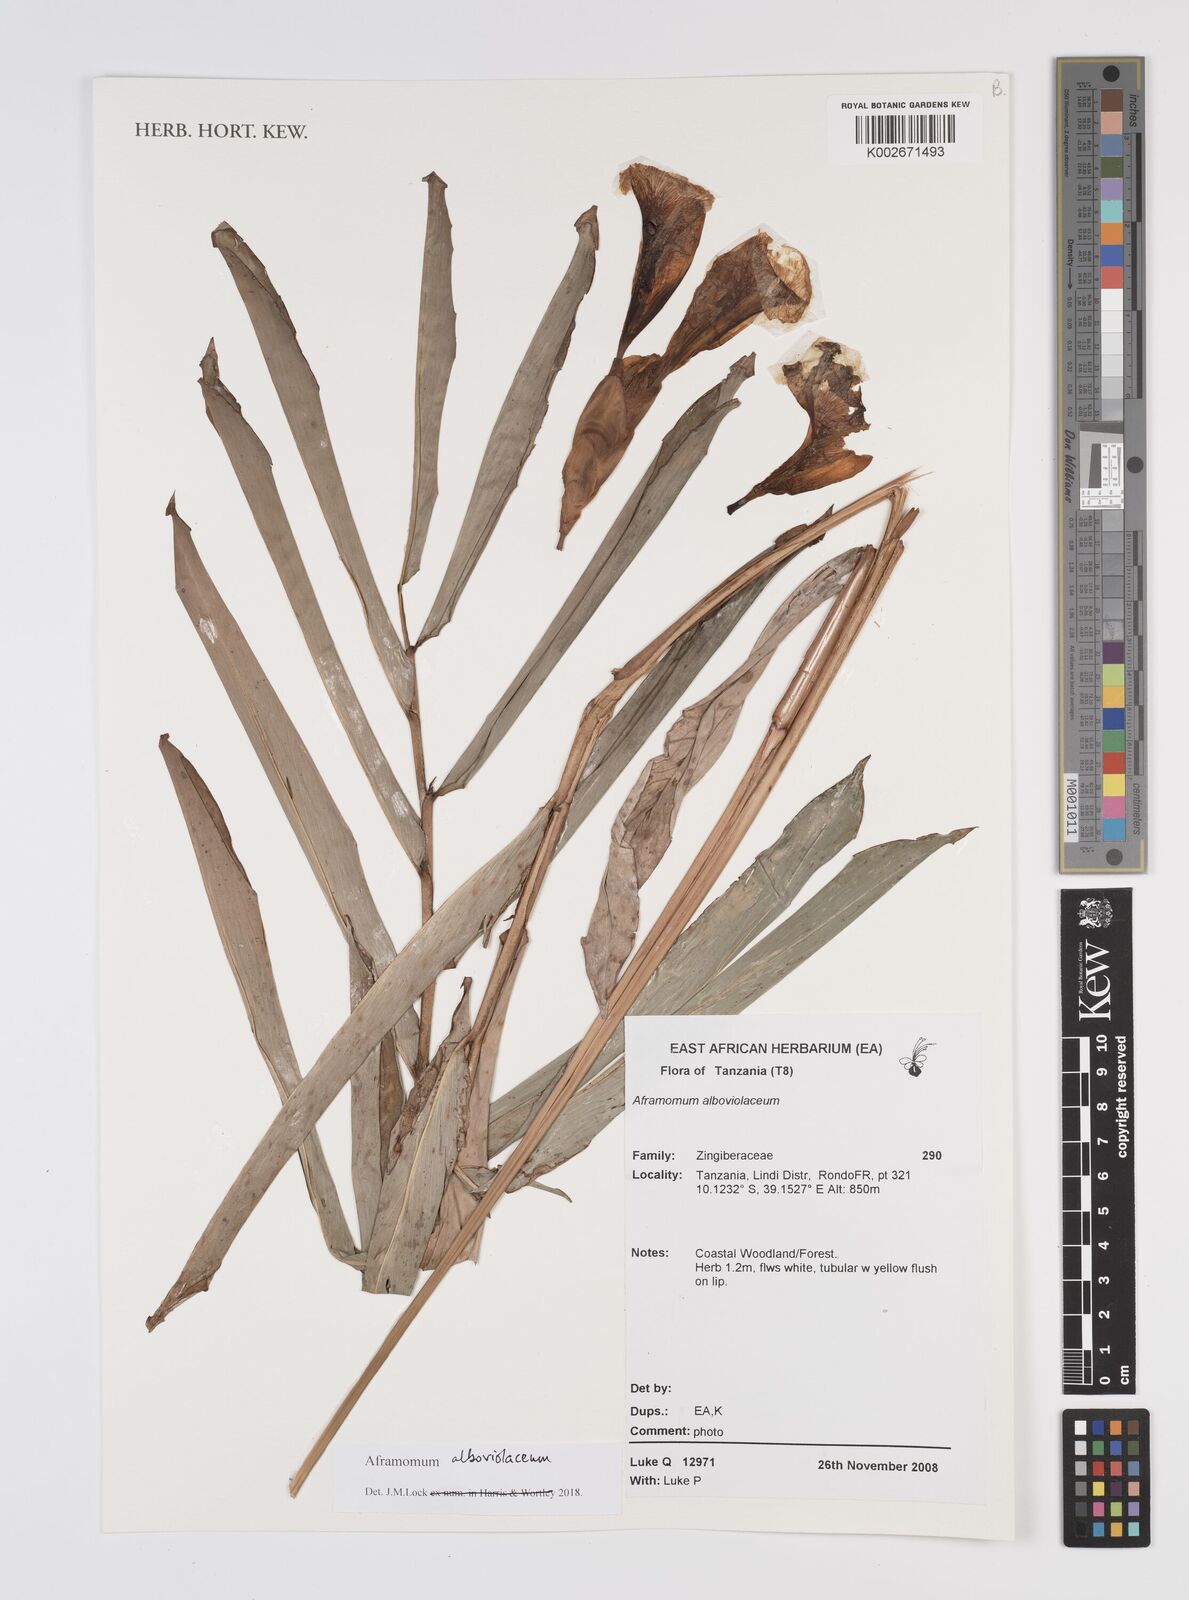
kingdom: Plantae
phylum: Tracheophyta
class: Liliopsida
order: Zingiberales
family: Zingiberaceae
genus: Aframomum
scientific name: Aframomum alboviolaceum
